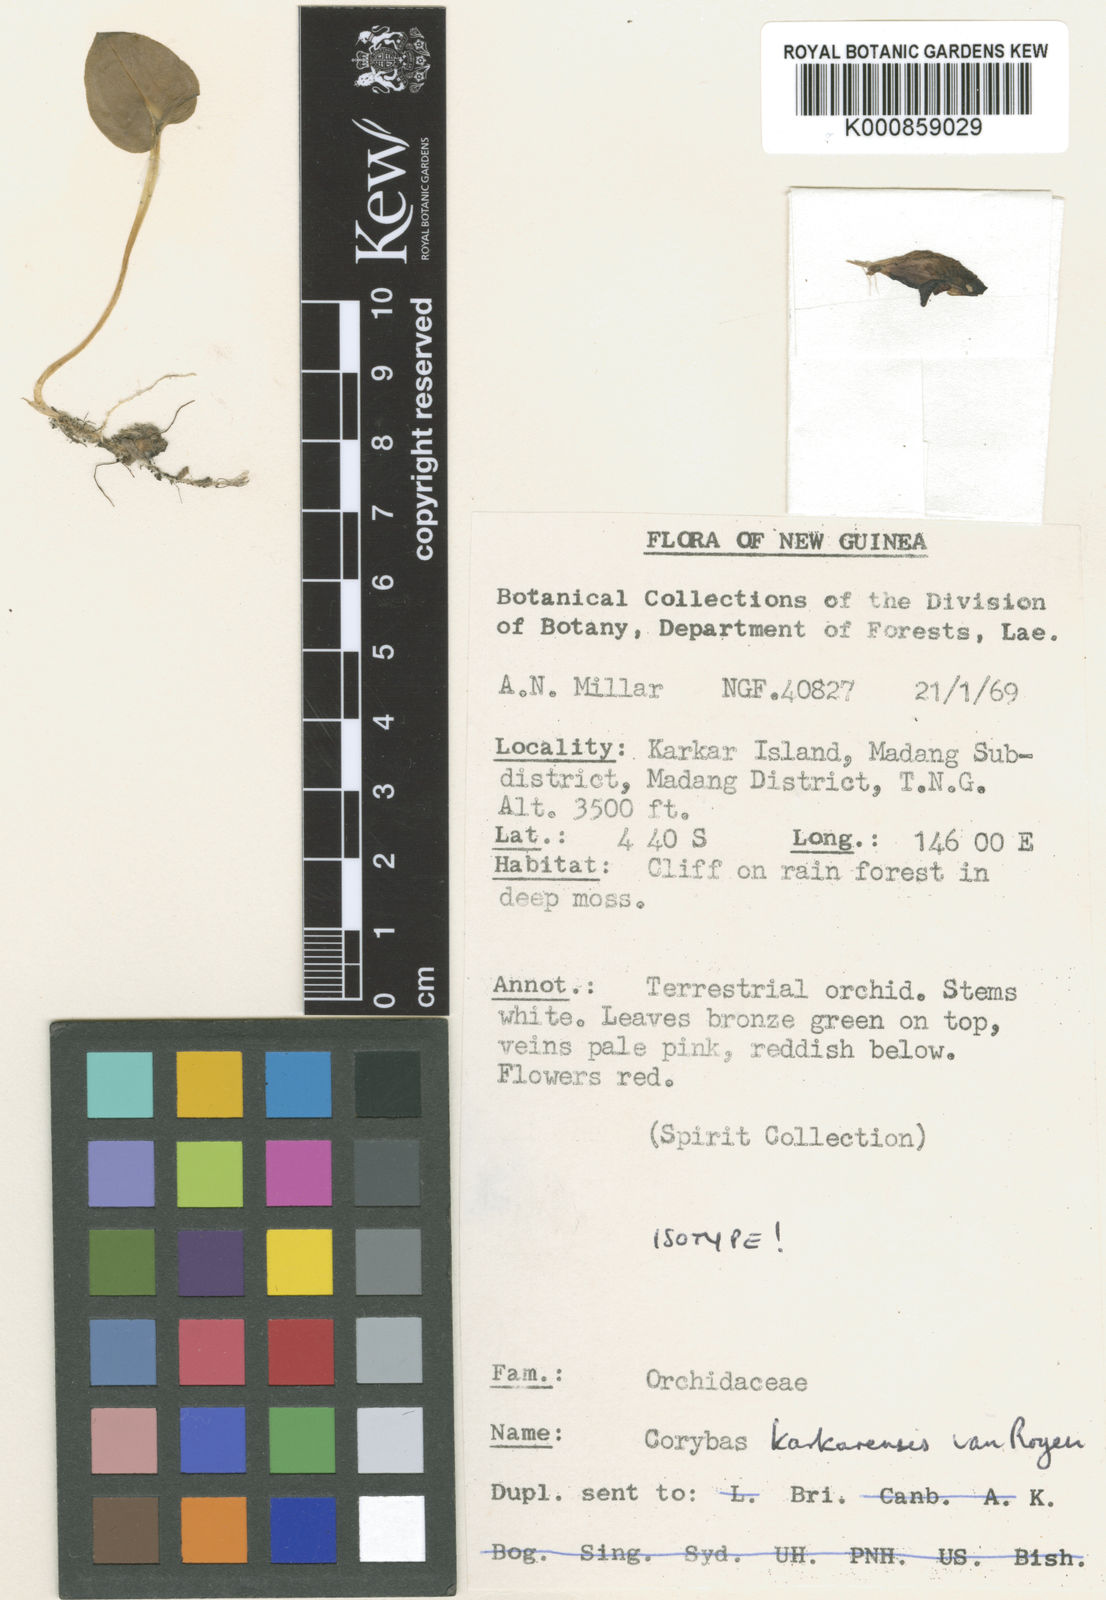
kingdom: Plantae
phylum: Tracheophyta
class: Liliopsida
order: Asparagales
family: Orchidaceae
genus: Corybas
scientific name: Corybas karkarensis
